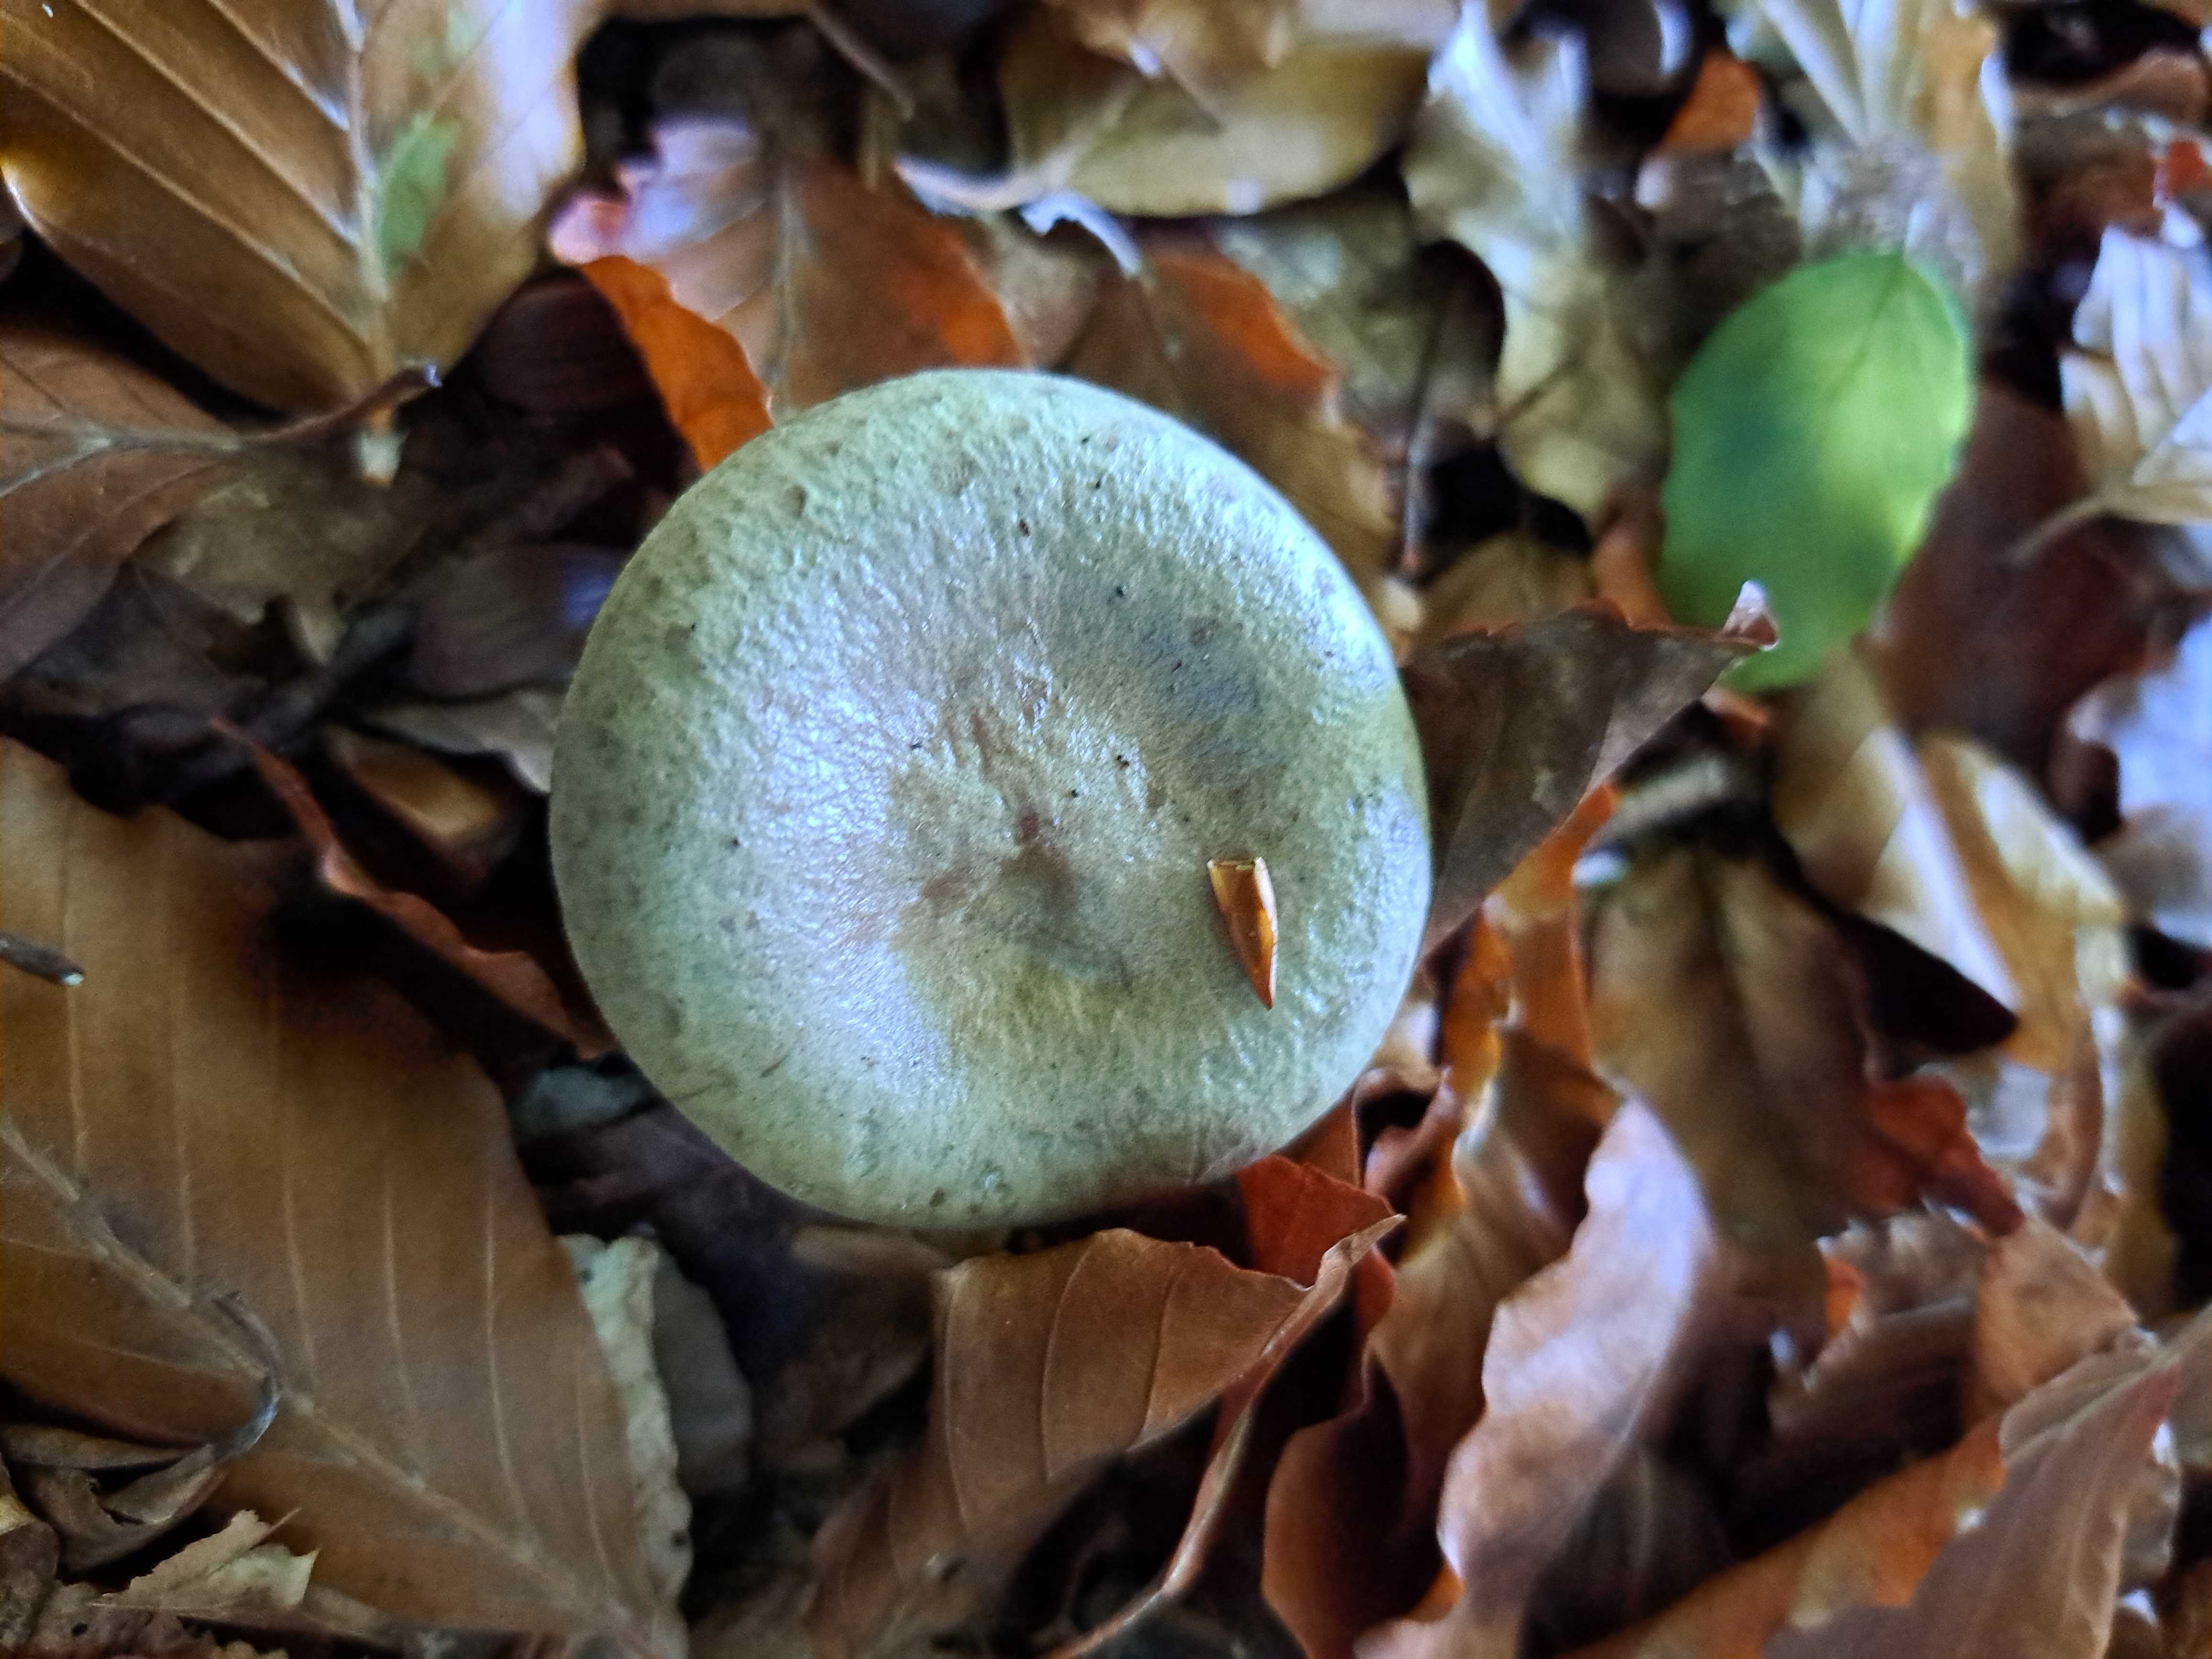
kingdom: Fungi
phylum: Basidiomycota
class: Agaricomycetes
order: Russulales
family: Russulaceae
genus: Lactarius
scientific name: Lactarius blennius
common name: dråbeplettet mælkehat
